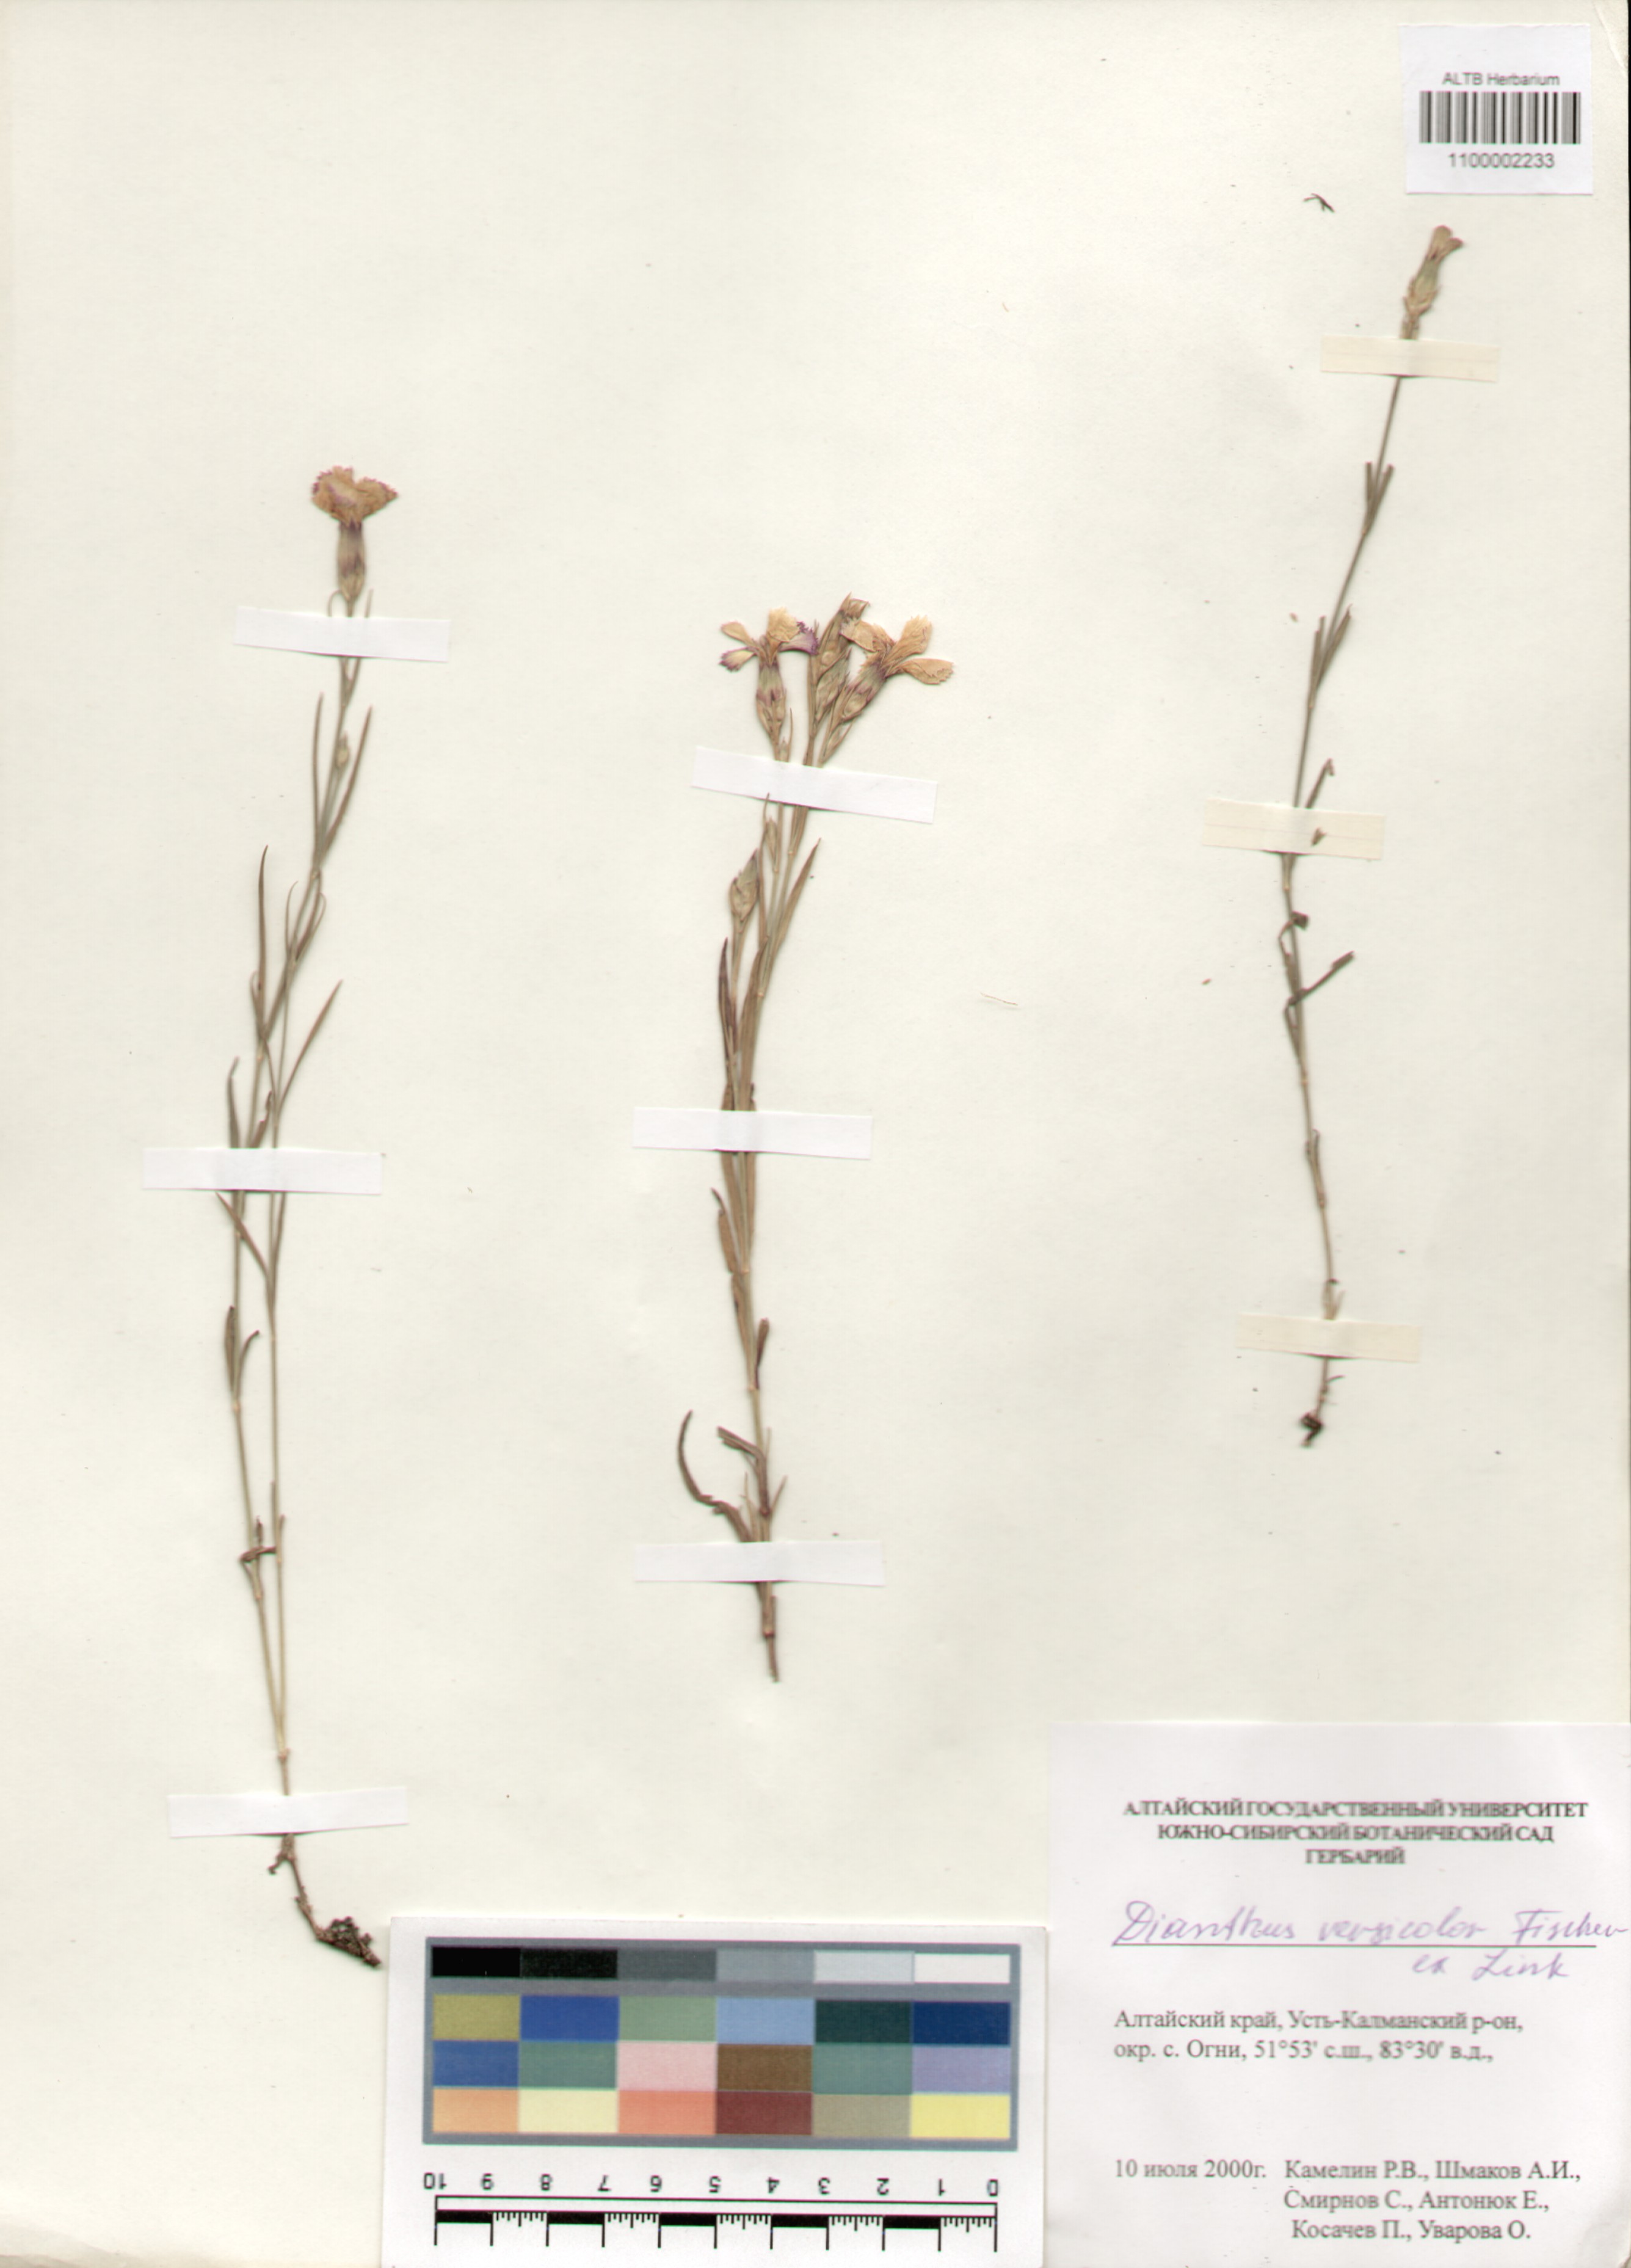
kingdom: Plantae
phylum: Tracheophyta
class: Magnoliopsida
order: Caryophyllales
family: Caryophyllaceae
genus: Dianthus
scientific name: Dianthus chinensis
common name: Rainbow pink
